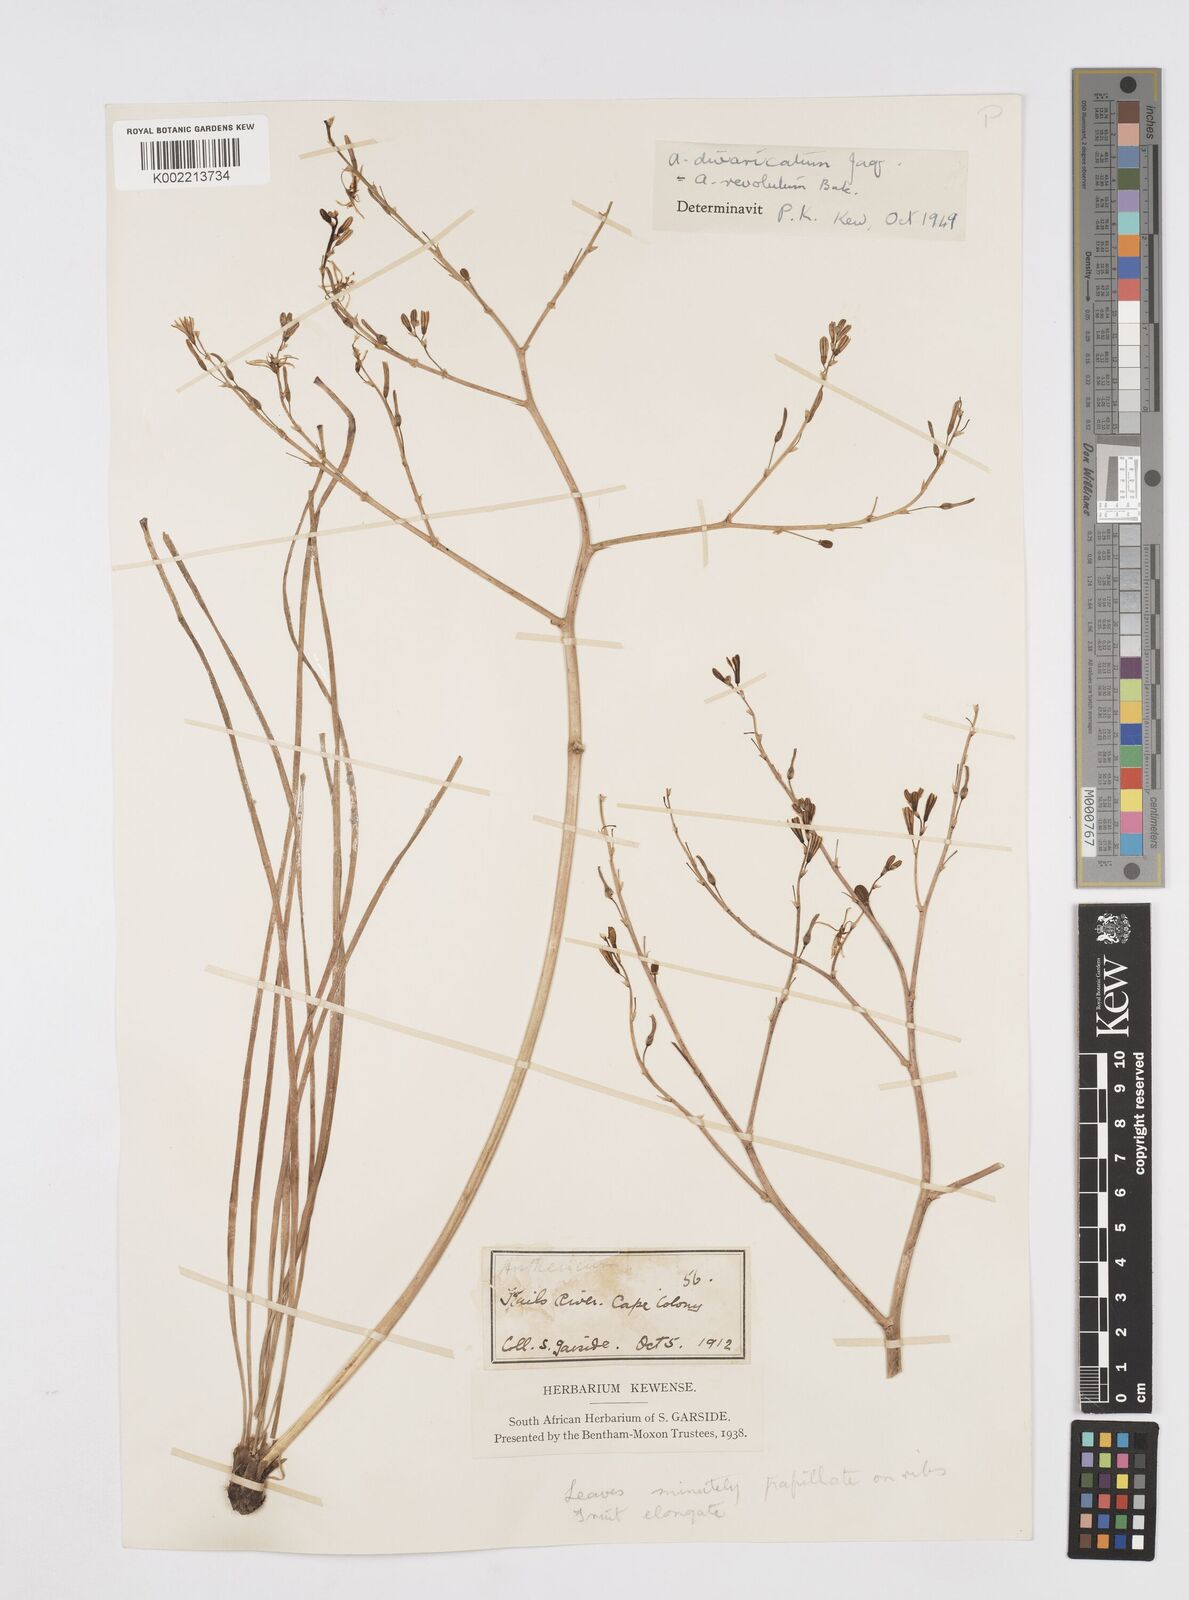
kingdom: Plantae
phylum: Tracheophyta
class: Liliopsida
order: Asparagales
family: Asphodelaceae
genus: Trachyandra
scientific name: Trachyandra divaricata
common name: Dune onionweed
